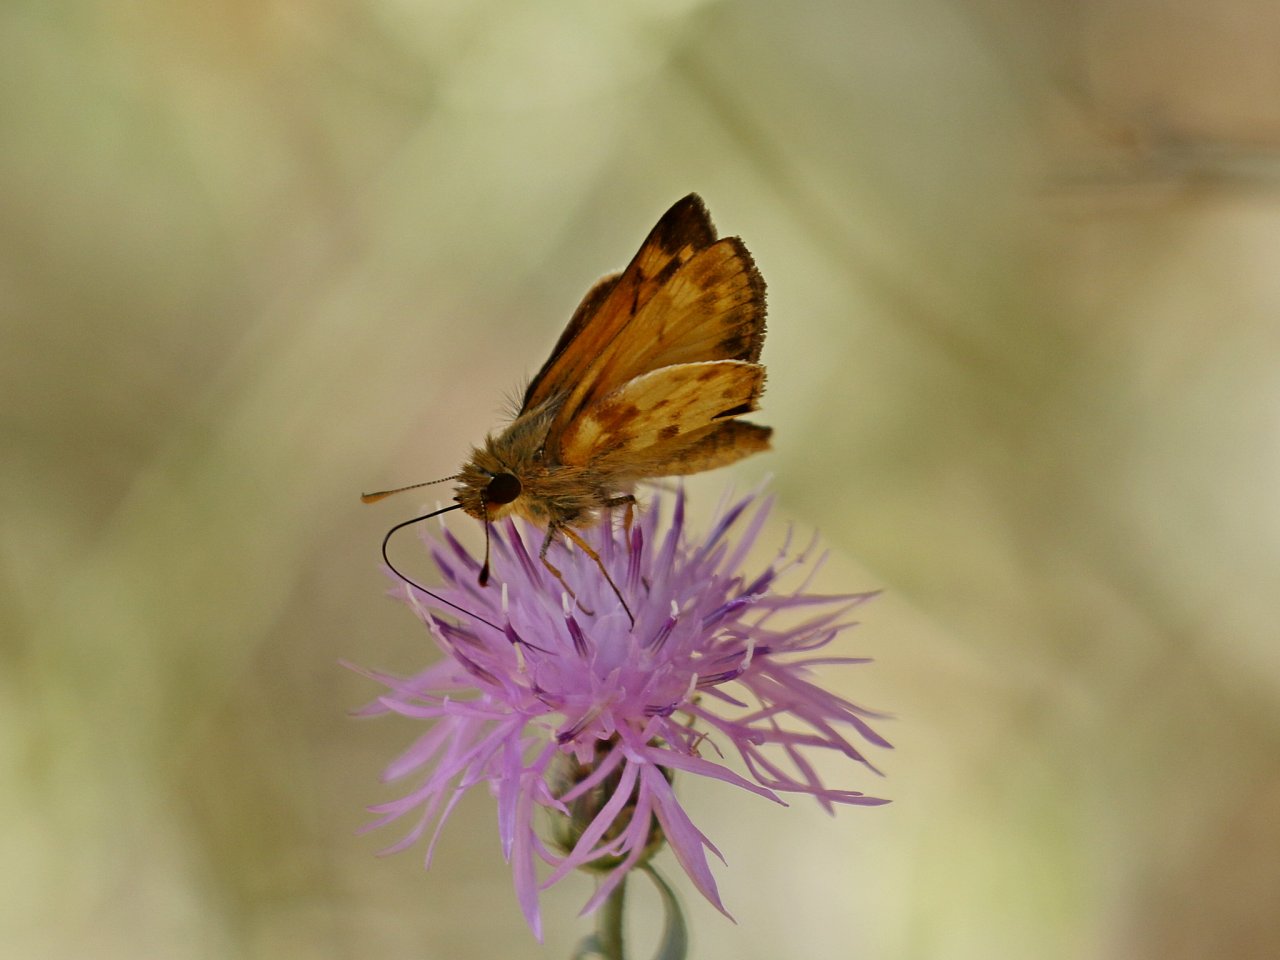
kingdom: Animalia
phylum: Arthropoda
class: Insecta
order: Lepidoptera
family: Hesperiidae
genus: Lon
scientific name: Lon zabulon
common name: Zabulon Skipper
